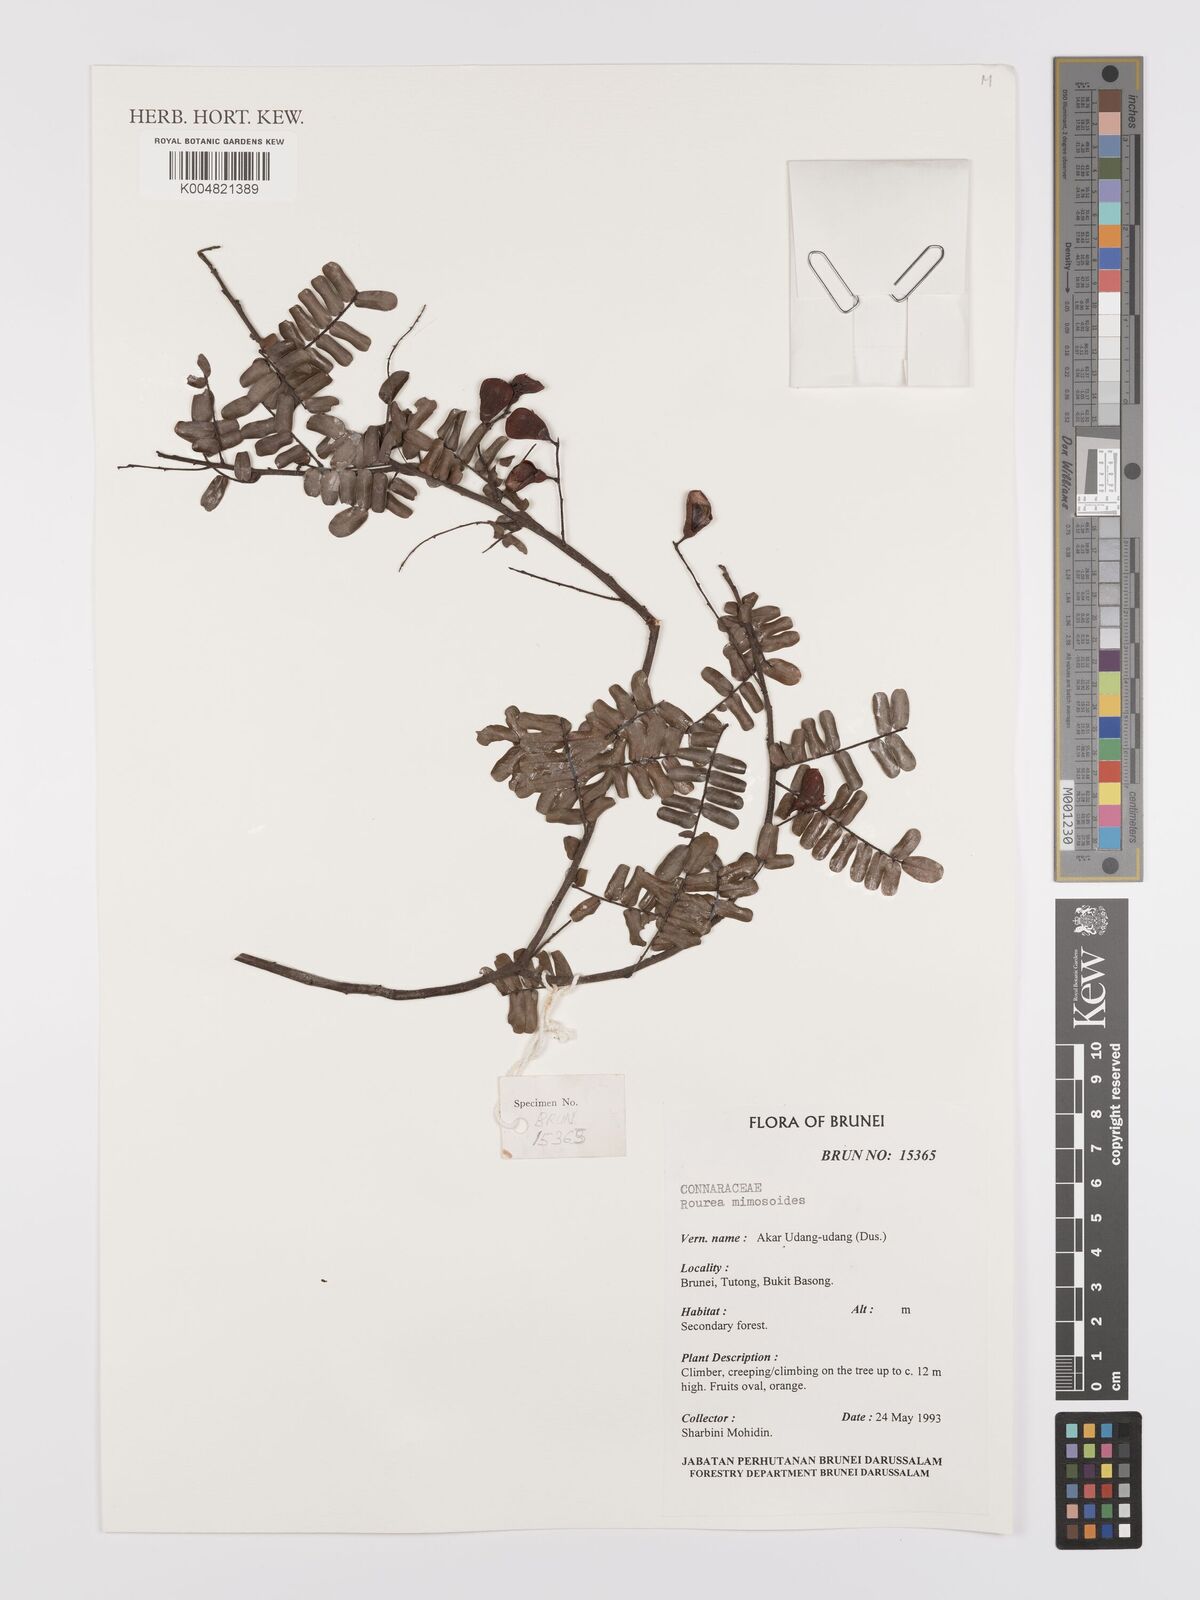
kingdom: Plantae
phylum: Tracheophyta
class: Magnoliopsida
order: Oxalidales
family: Connaraceae
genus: Rourea
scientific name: Rourea mimosoides
